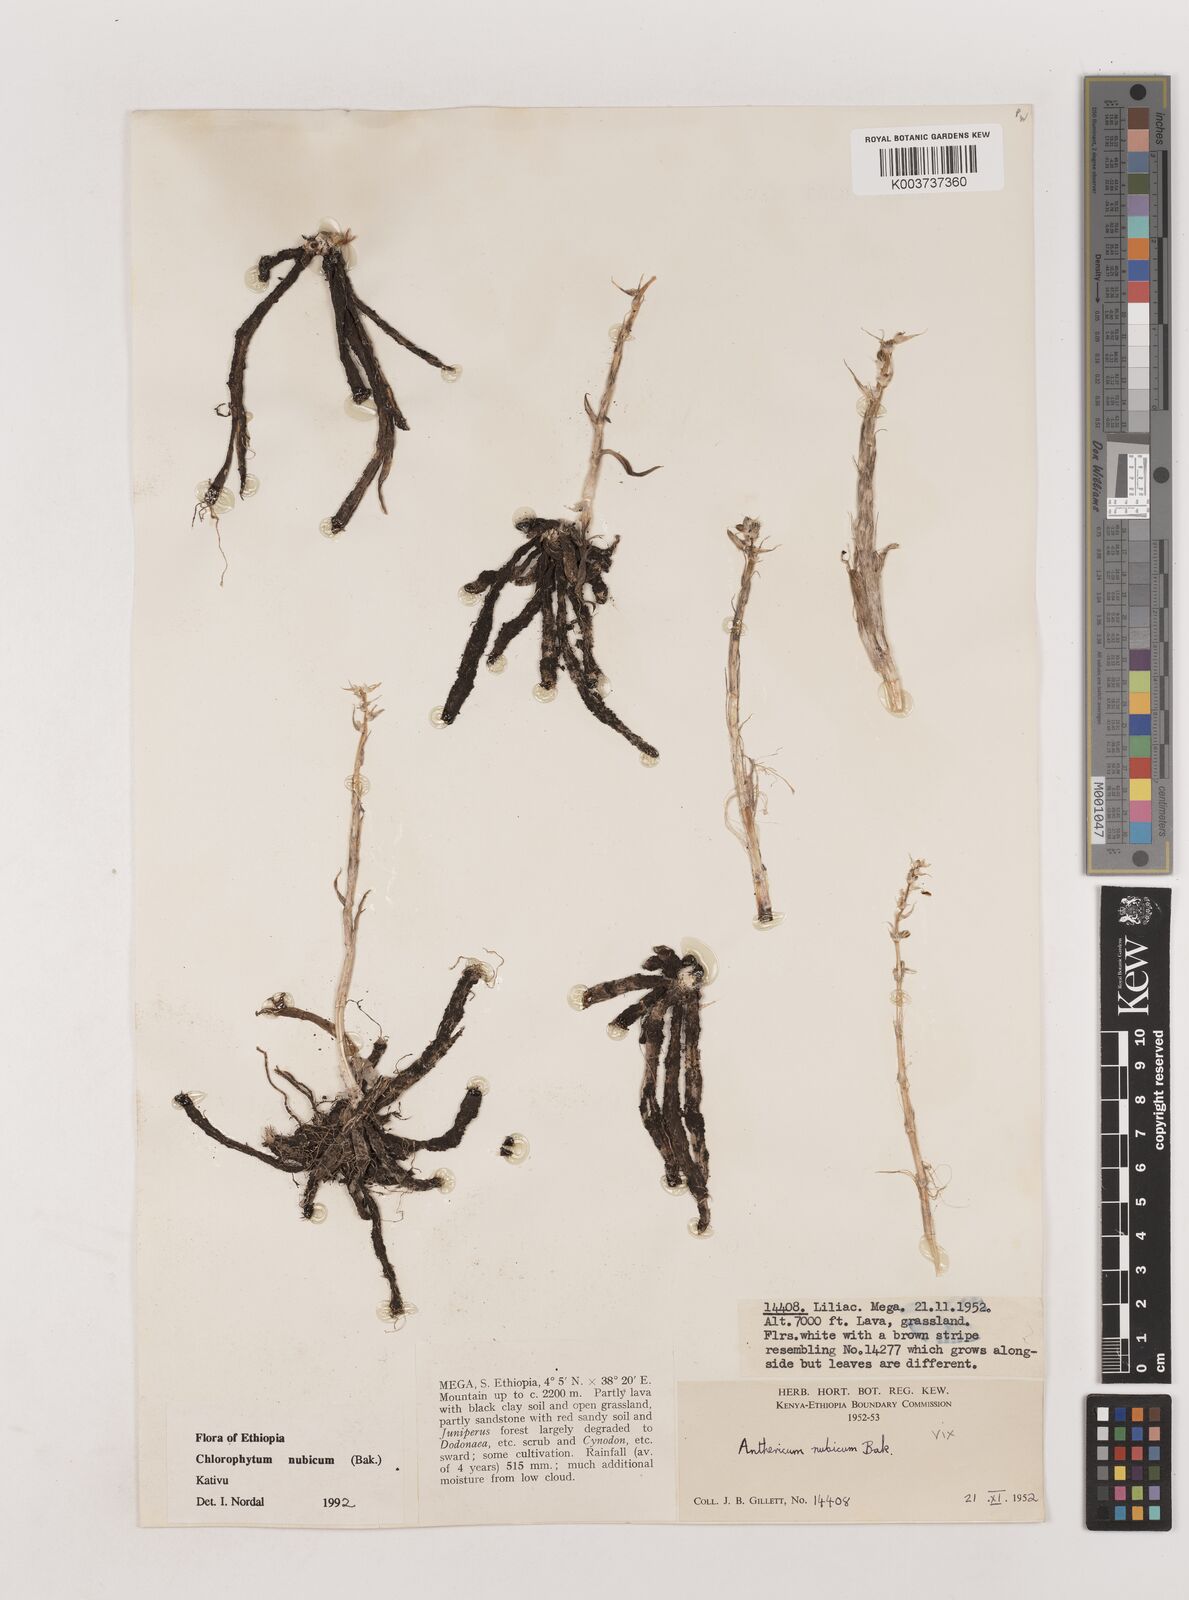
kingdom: Plantae
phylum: Tracheophyta
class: Liliopsida
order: Asparagales
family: Asparagaceae
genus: Chlorophytum
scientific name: Chlorophytum nubicum
